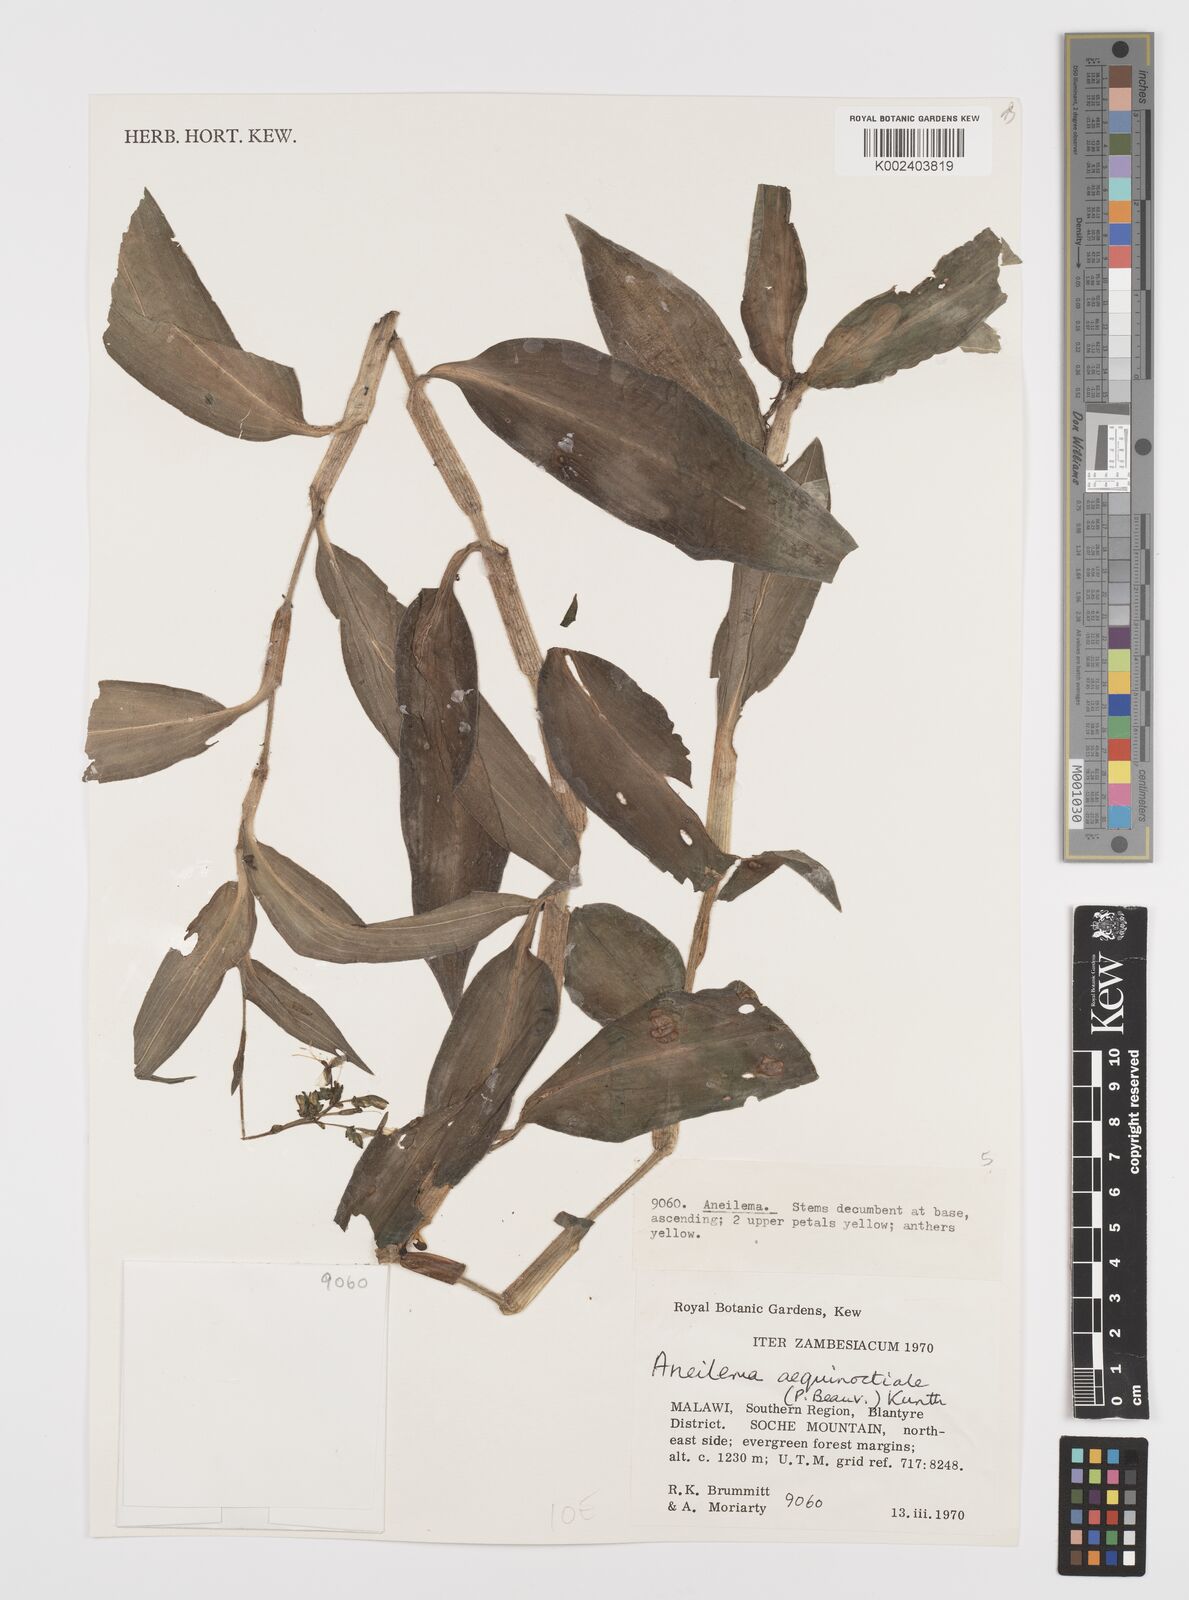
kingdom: Plantae
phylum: Tracheophyta
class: Liliopsida
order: Commelinales
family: Commelinaceae
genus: Aneilema
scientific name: Aneilema aequinoctiale
